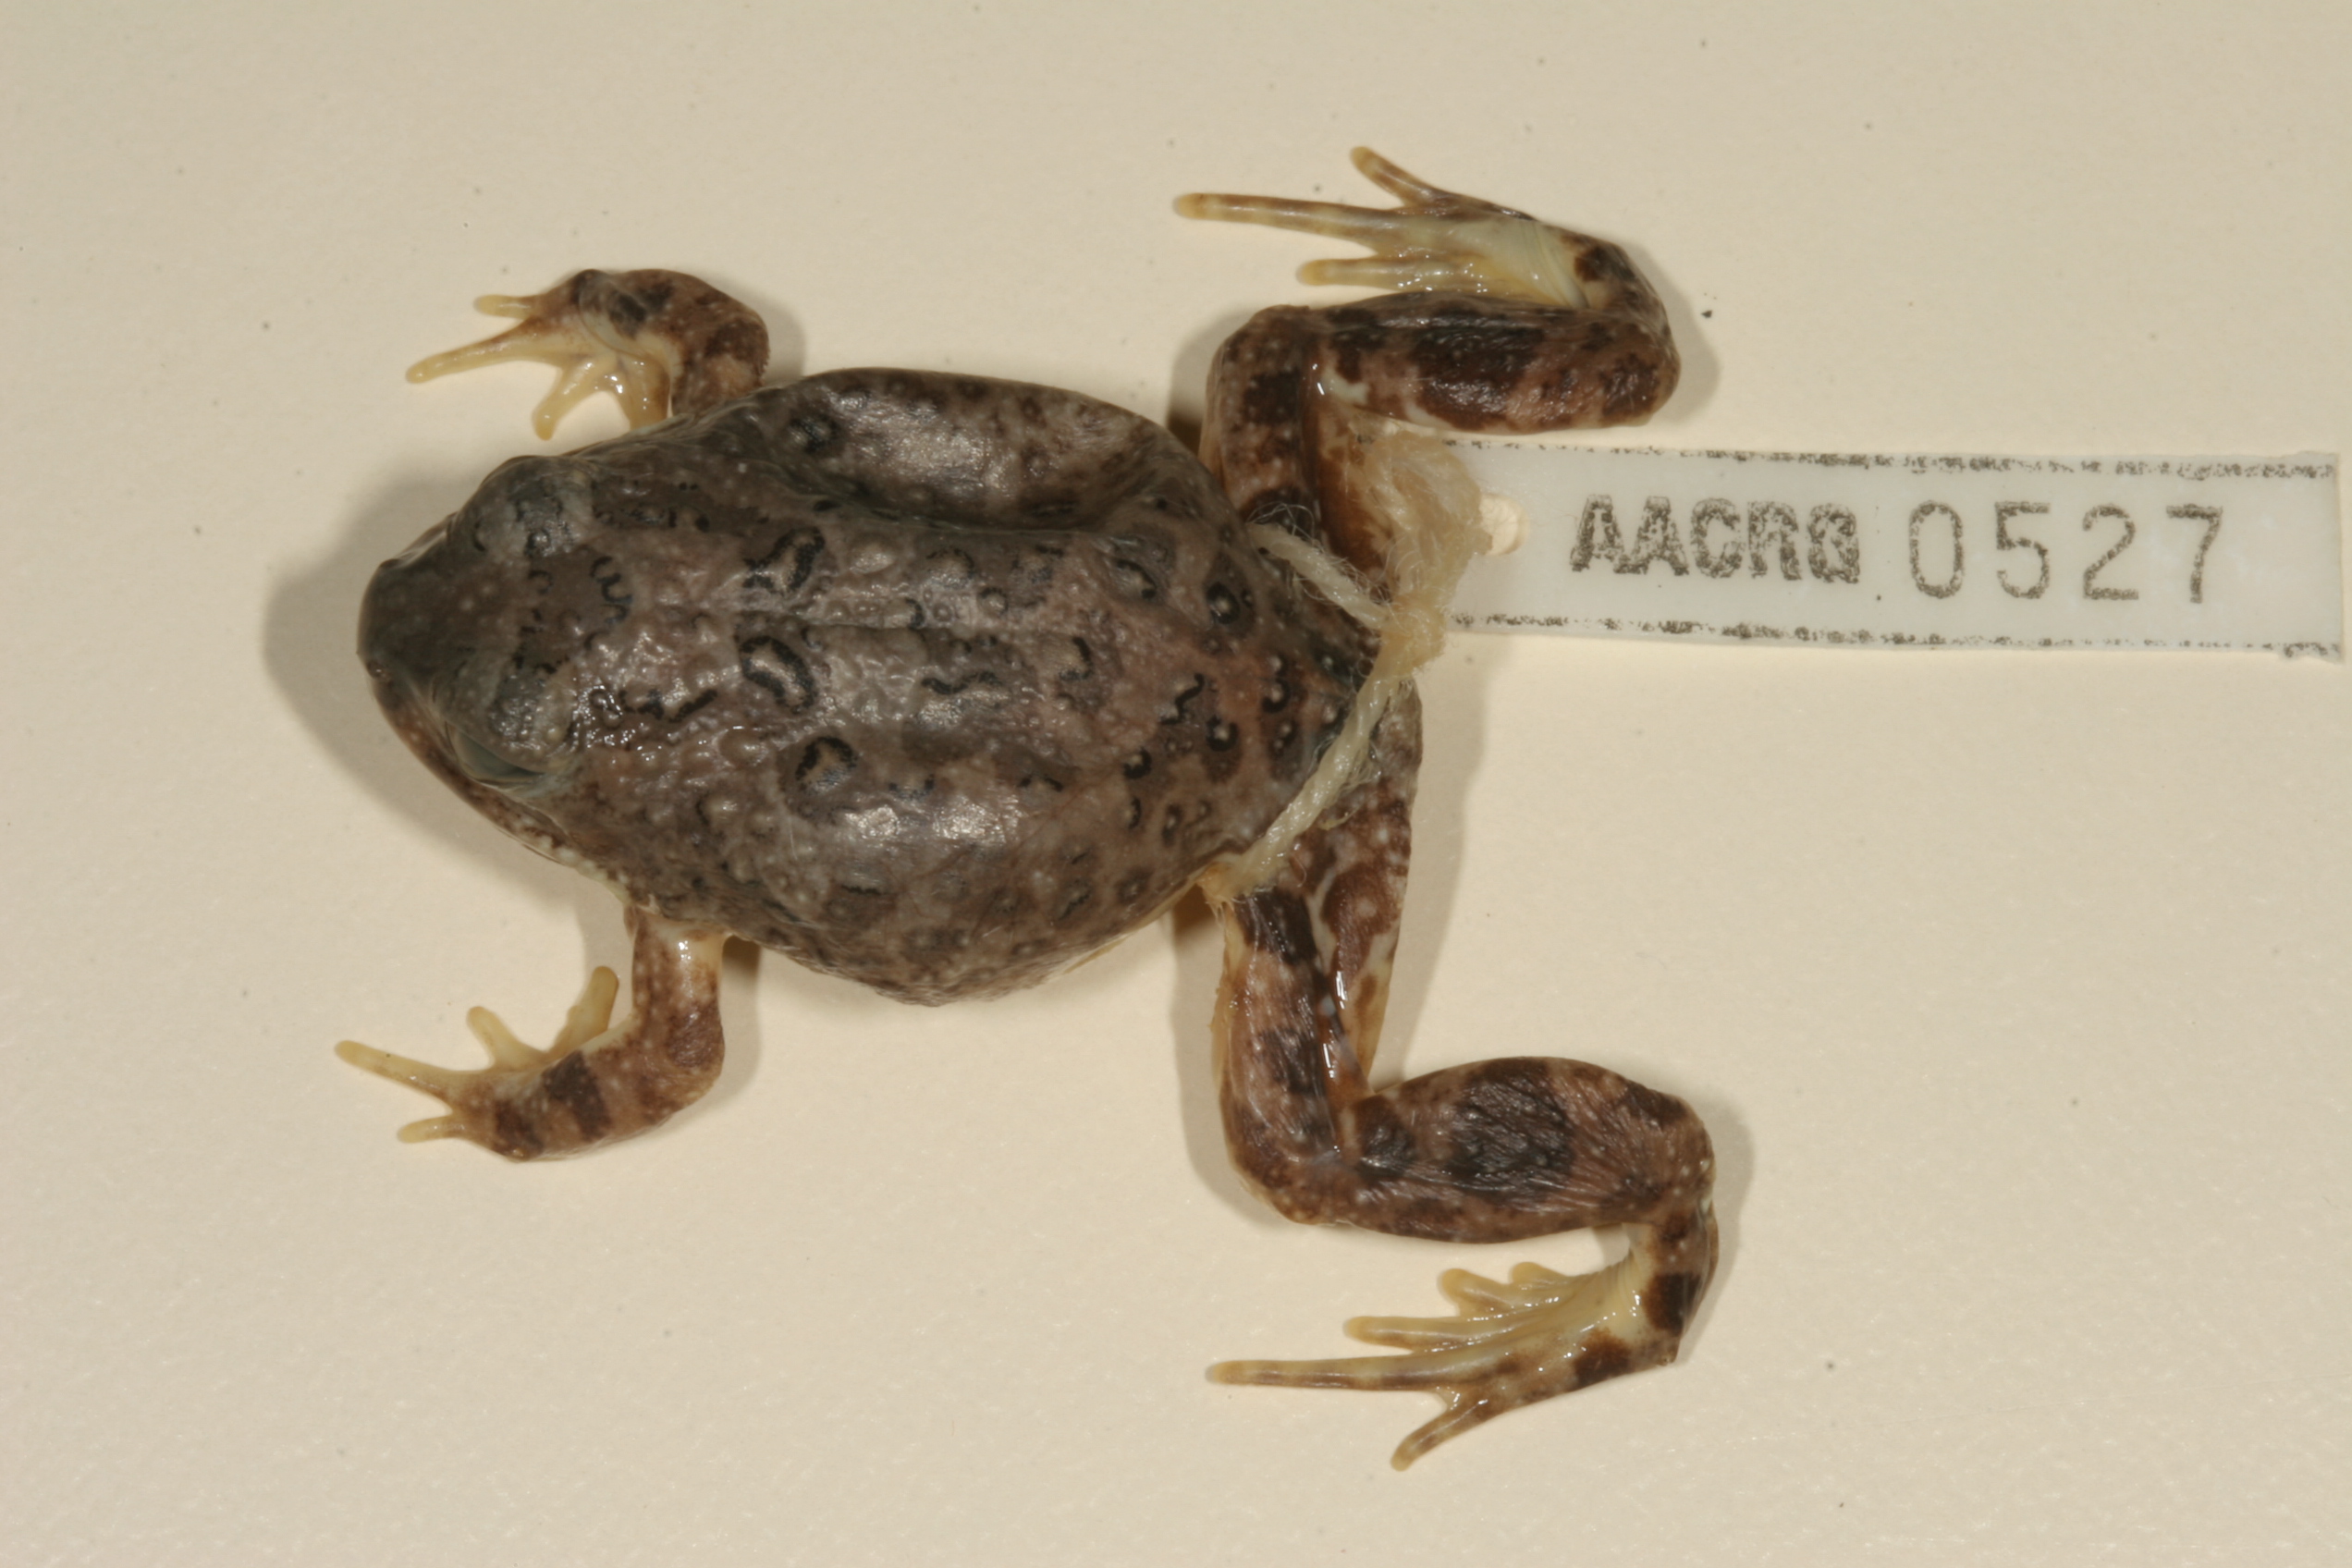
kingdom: Animalia
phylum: Chordata
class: Amphibia
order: Anura
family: Pyxicephalidae
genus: Tomopterna
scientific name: Tomopterna tandyi
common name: Tandy's sand frog
